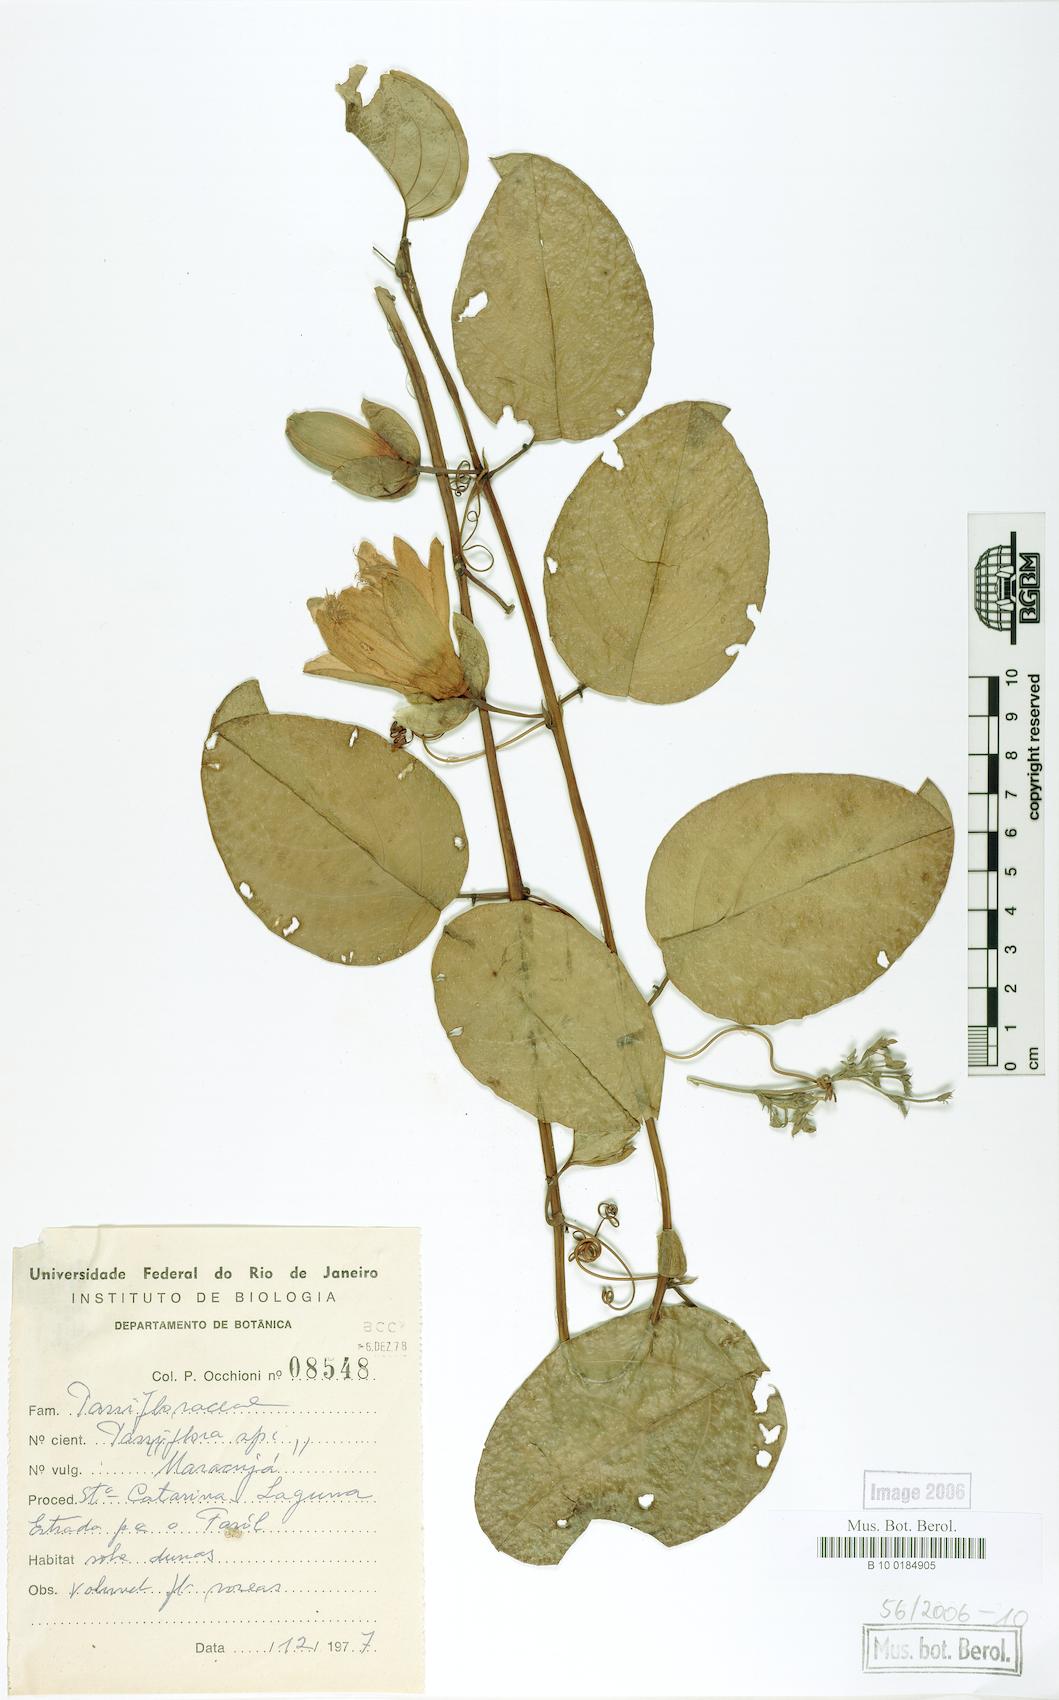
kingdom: Plantae
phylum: Tracheophyta
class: Magnoliopsida
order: Malpighiales
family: Passifloraceae
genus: Passiflora
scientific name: Passiflora
